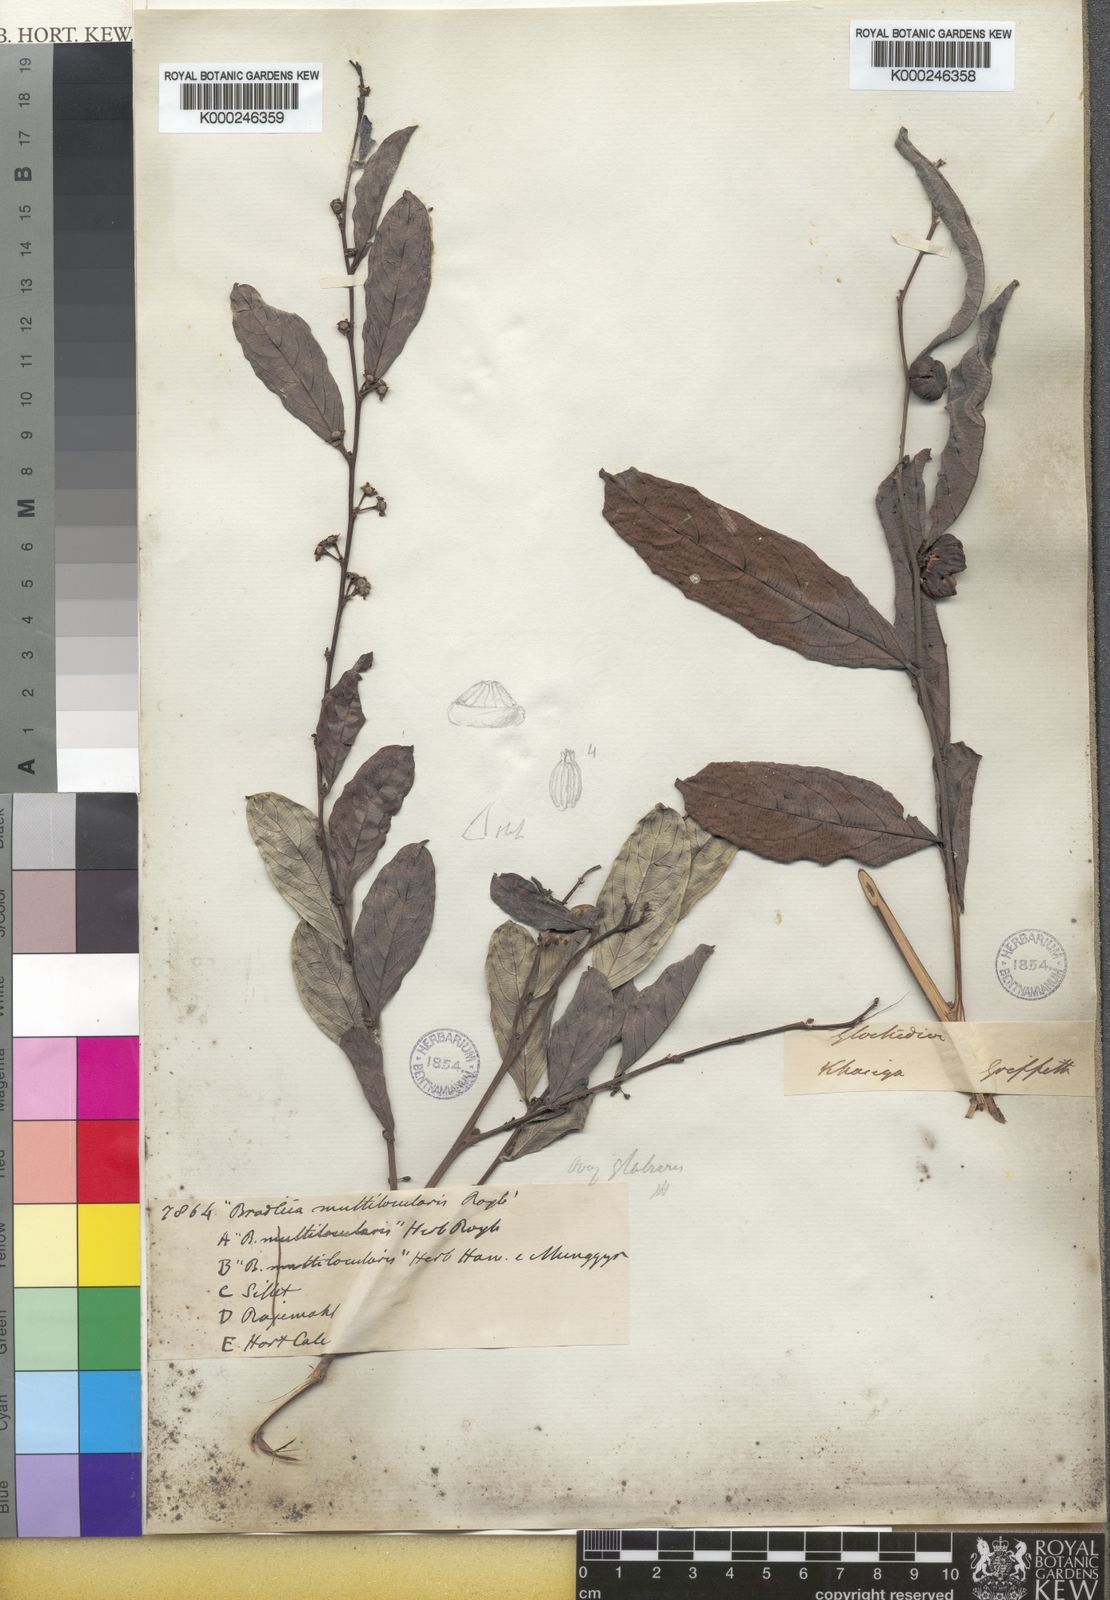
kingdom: Plantae
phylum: Tracheophyta
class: Magnoliopsida
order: Malpighiales
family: Phyllanthaceae
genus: Glochidion
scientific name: Glochidion multiloculare
